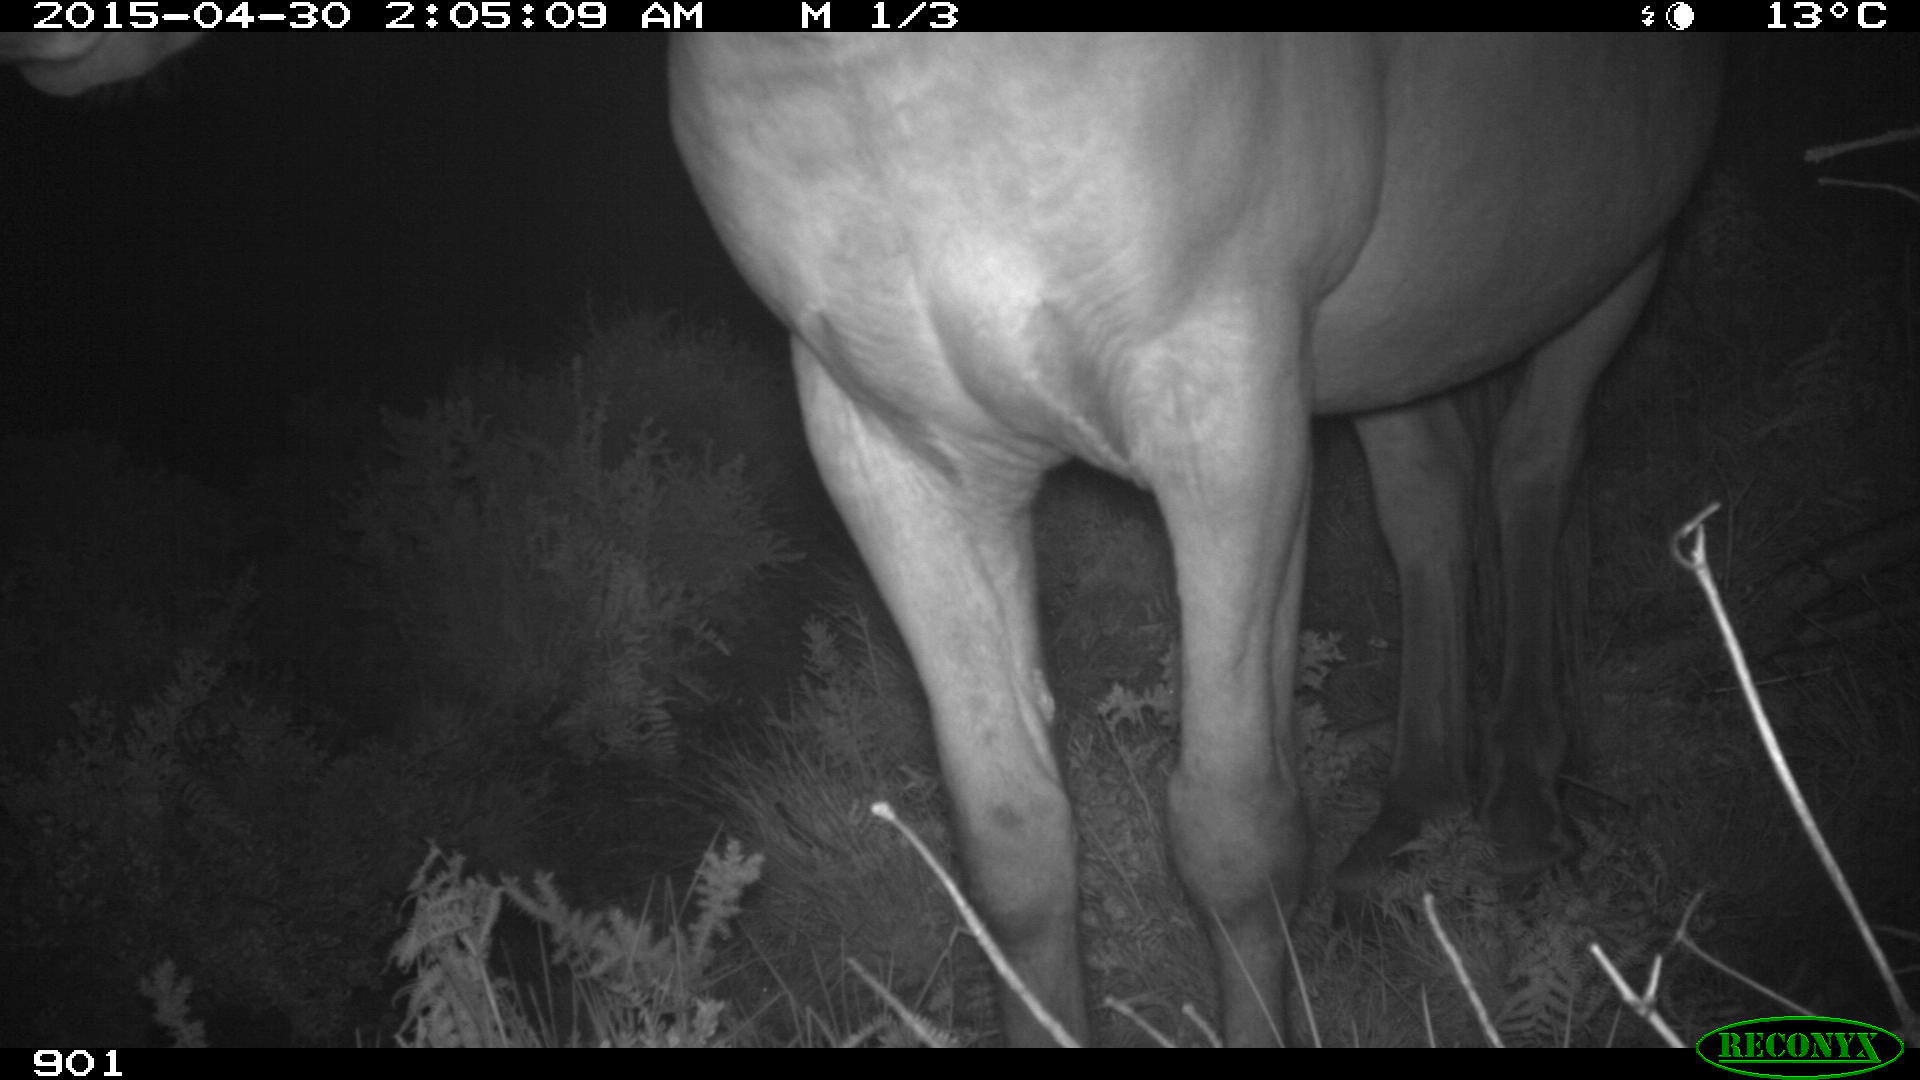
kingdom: Animalia
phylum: Chordata
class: Mammalia
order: Perissodactyla
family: Equidae
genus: Equus
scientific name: Equus caballus
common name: Horse
